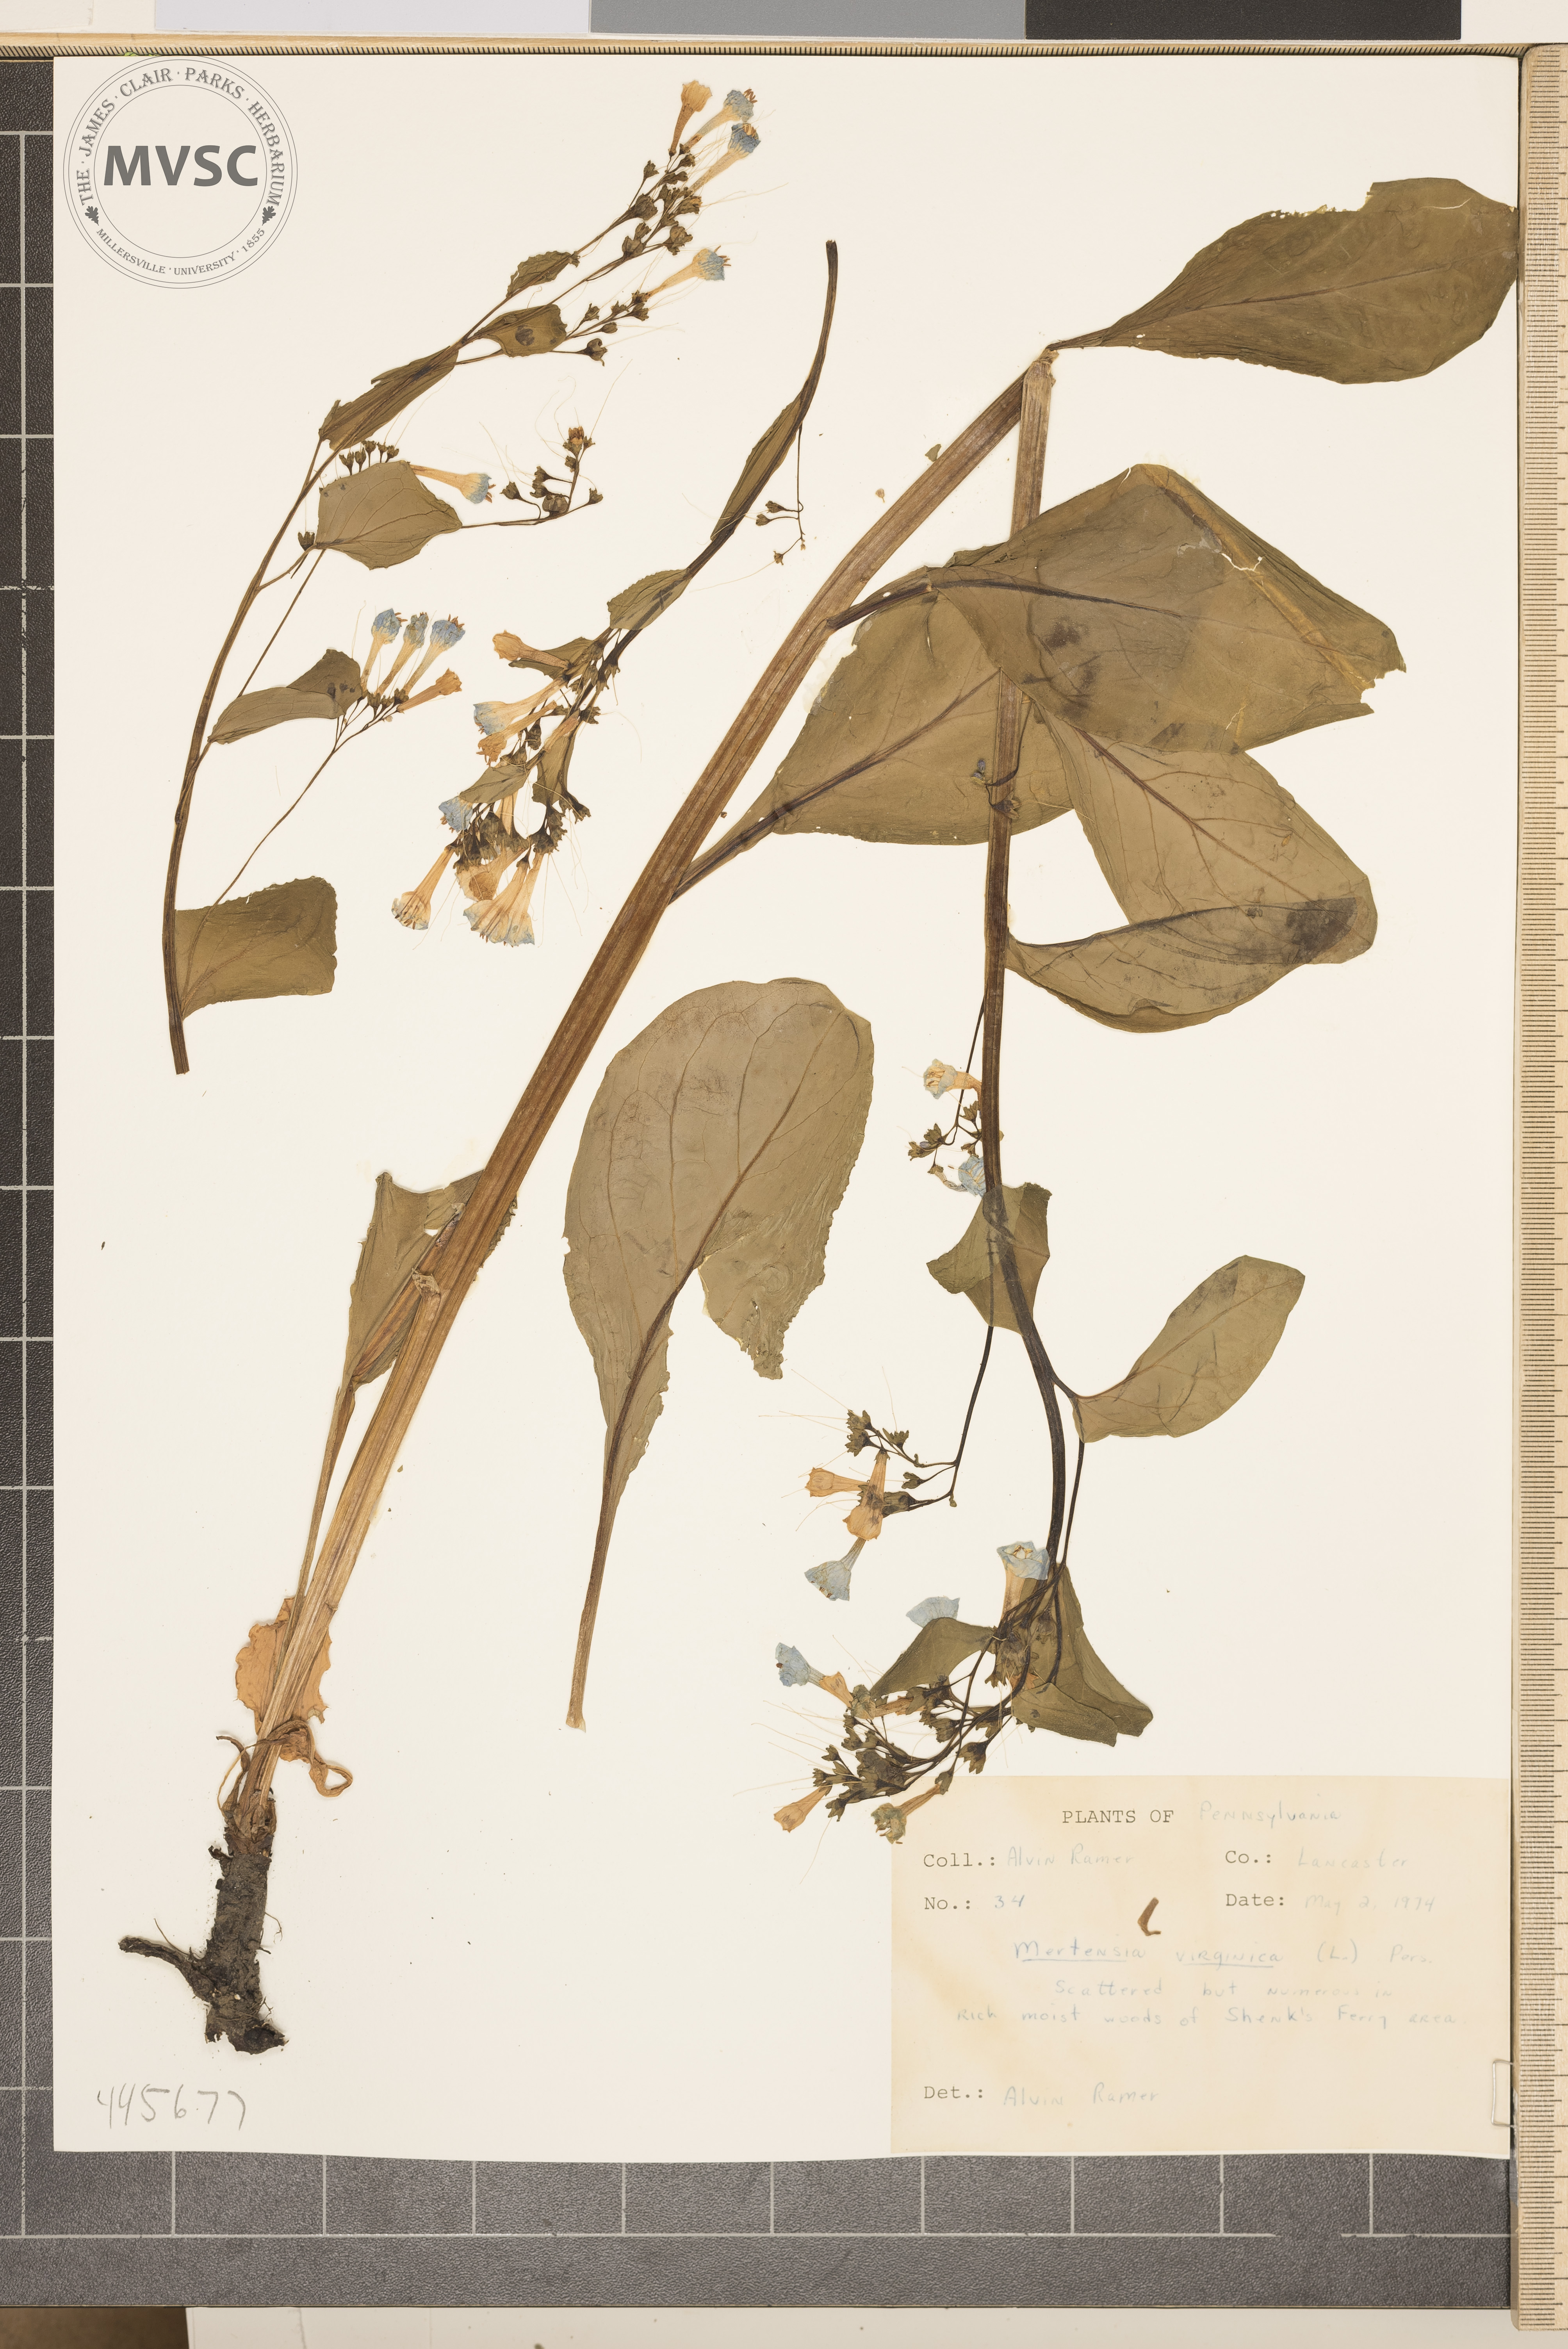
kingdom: Plantae
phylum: Tracheophyta
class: Magnoliopsida
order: Boraginales
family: Boraginaceae
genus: Mertensia
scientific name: Mertensia virginica
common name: Virginia bluebells
